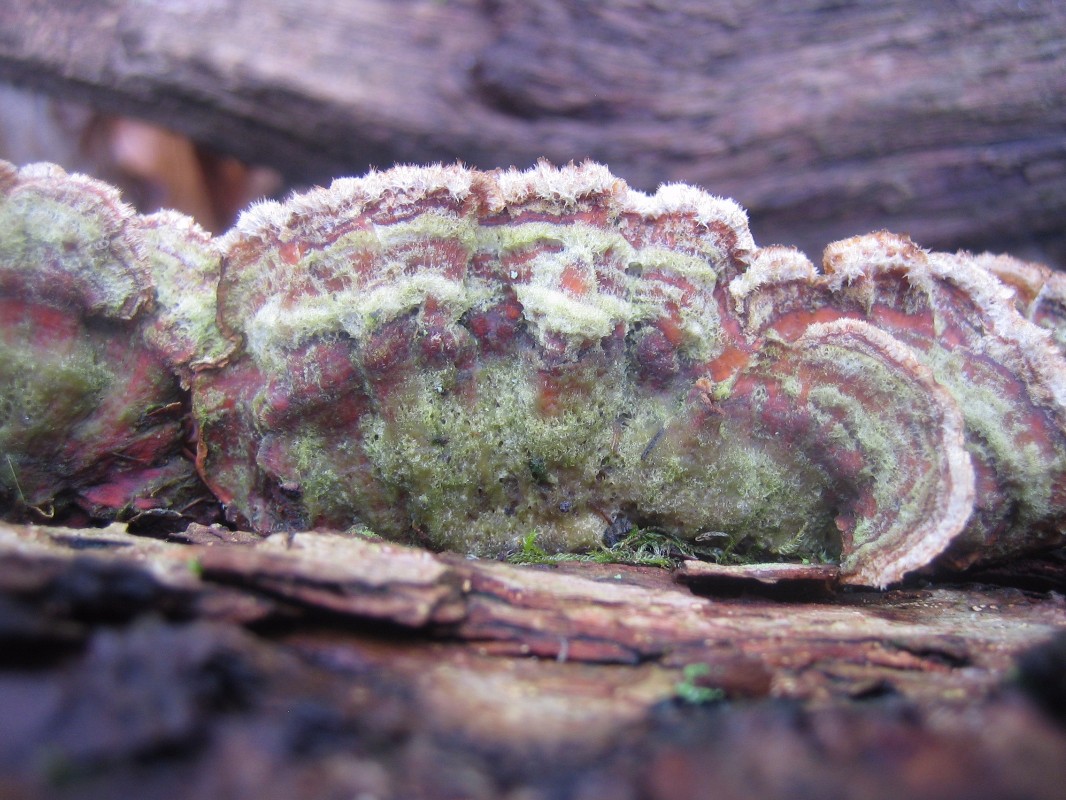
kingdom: Fungi
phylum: Basidiomycota
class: Agaricomycetes
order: Russulales
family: Stereaceae
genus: Stereum
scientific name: Stereum subtomentosum
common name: smuk lædersvamp
